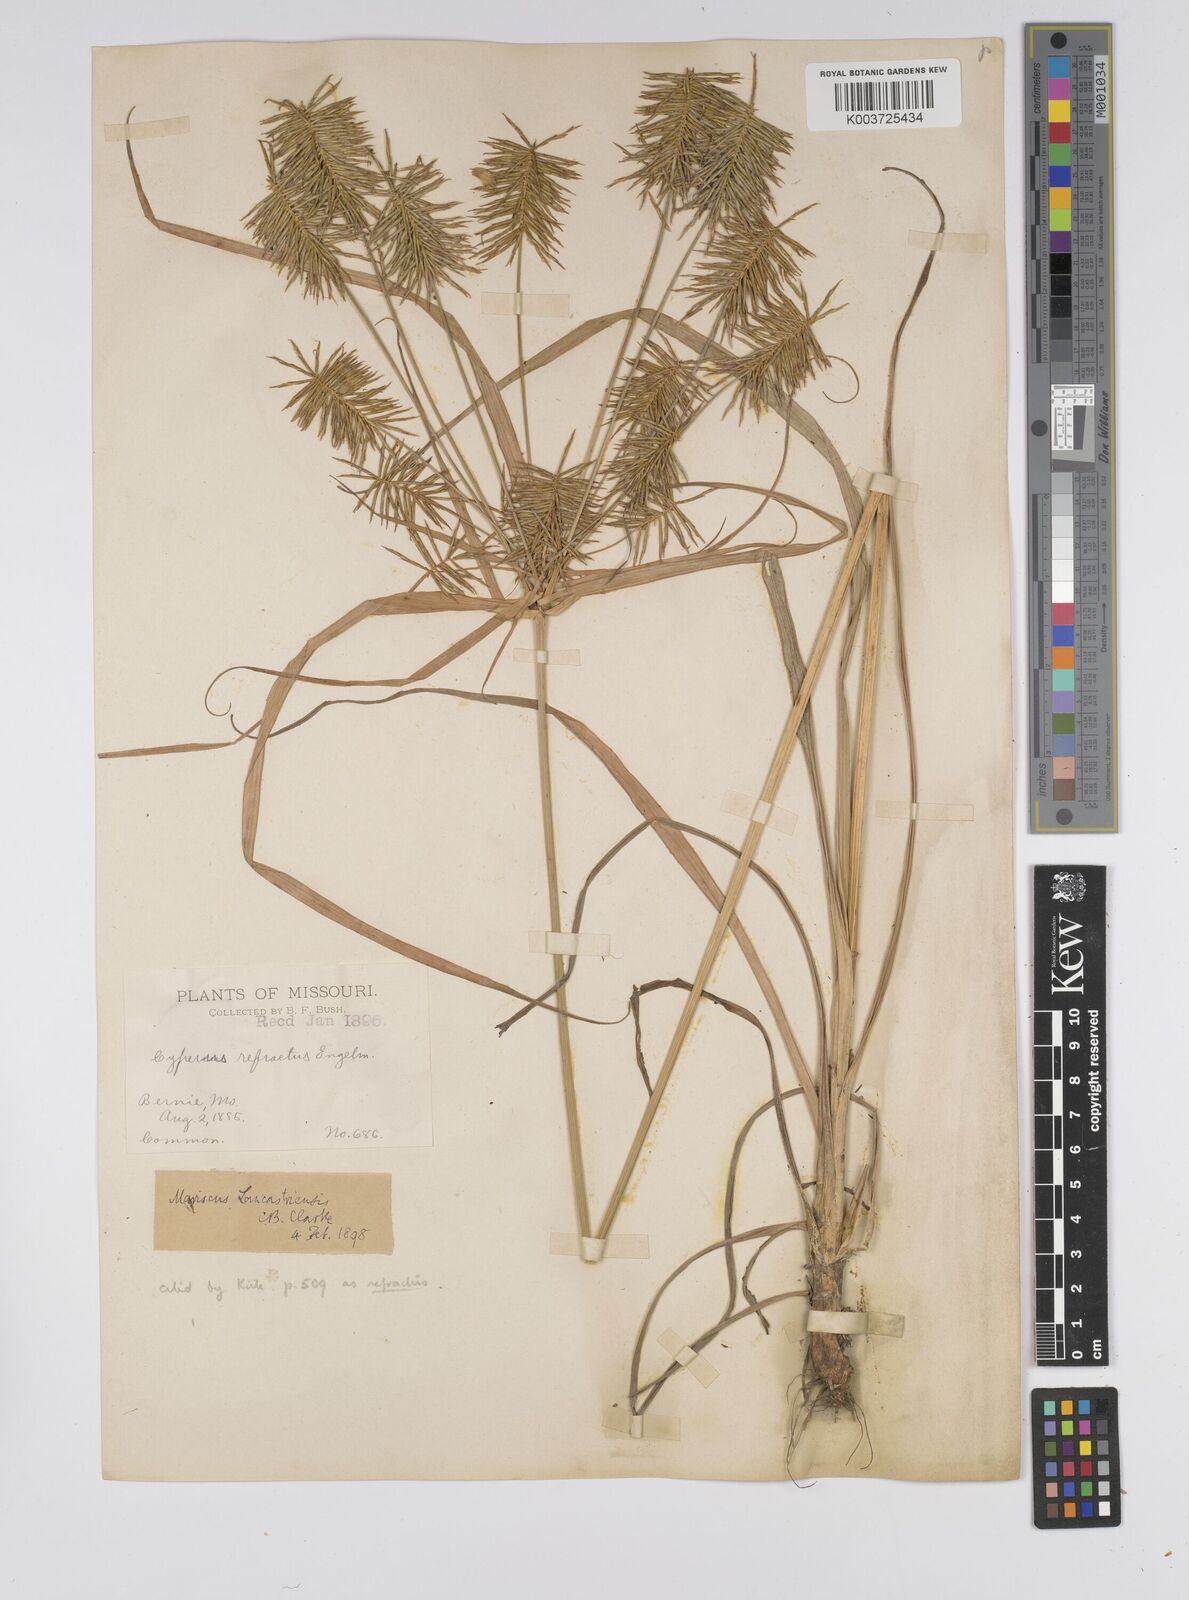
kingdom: Plantae
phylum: Tracheophyta
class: Liliopsida
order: Poales
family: Cyperaceae
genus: Cyperus
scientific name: Cyperus refractus
